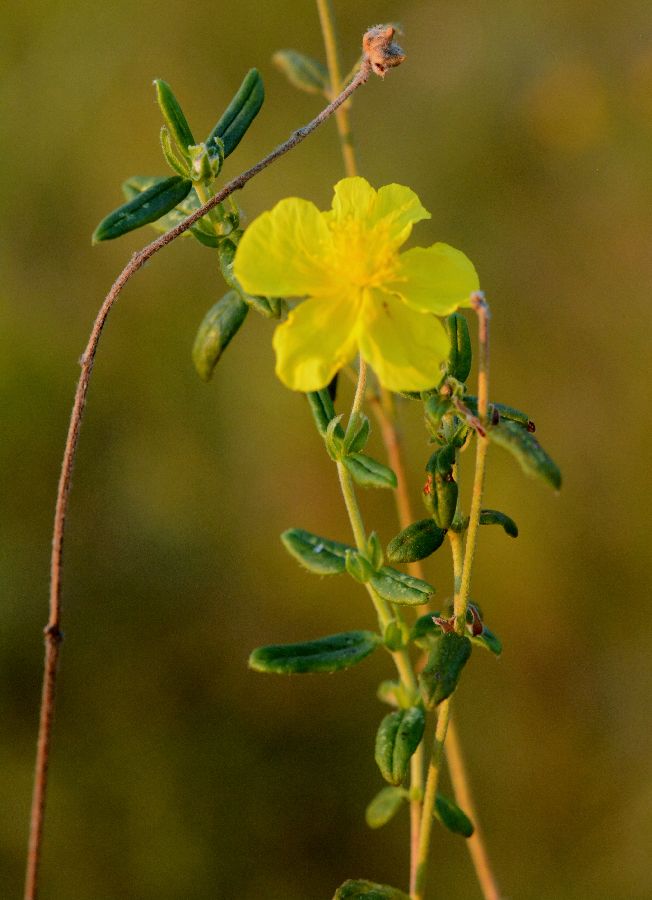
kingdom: Plantae
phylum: Tracheophyta
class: Magnoliopsida
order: Malvales
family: Cistaceae
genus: Helianthemum
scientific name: Helianthemum nummularium
